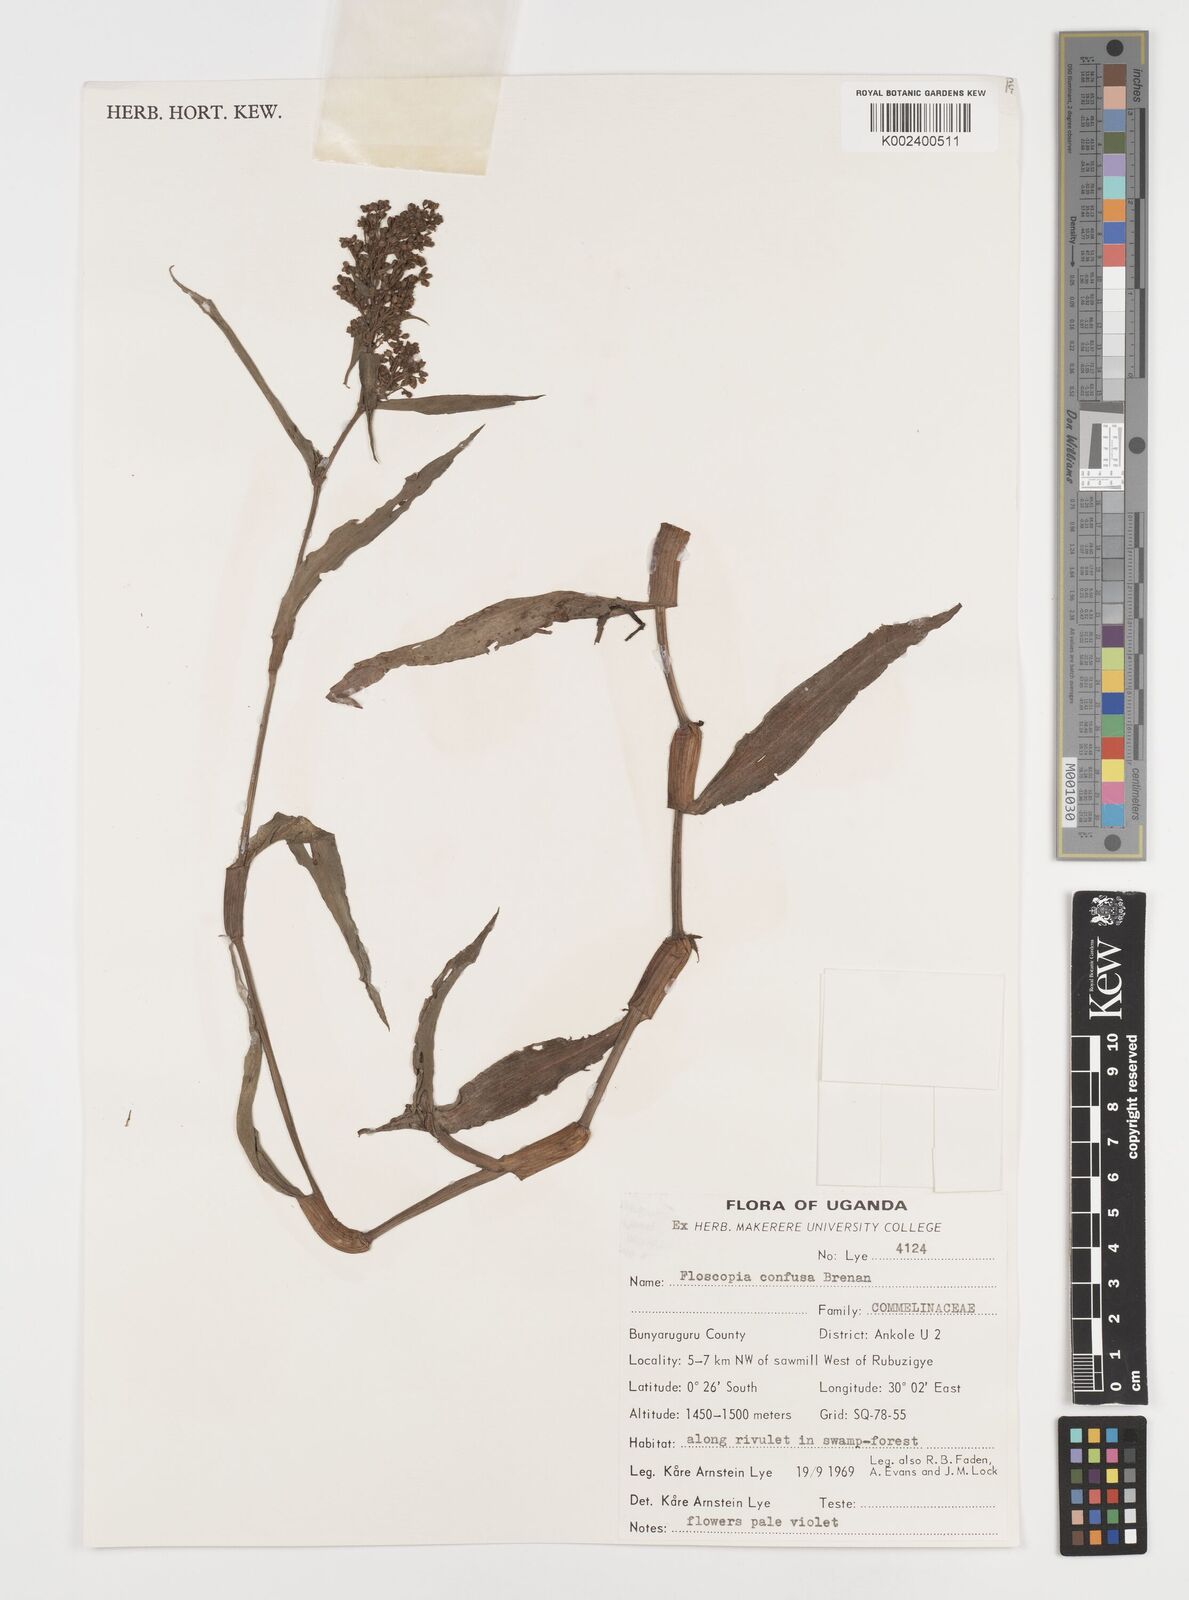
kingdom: Plantae
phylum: Tracheophyta
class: Liliopsida
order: Commelinales
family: Commelinaceae
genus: Floscopa
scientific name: Floscopa confusa
